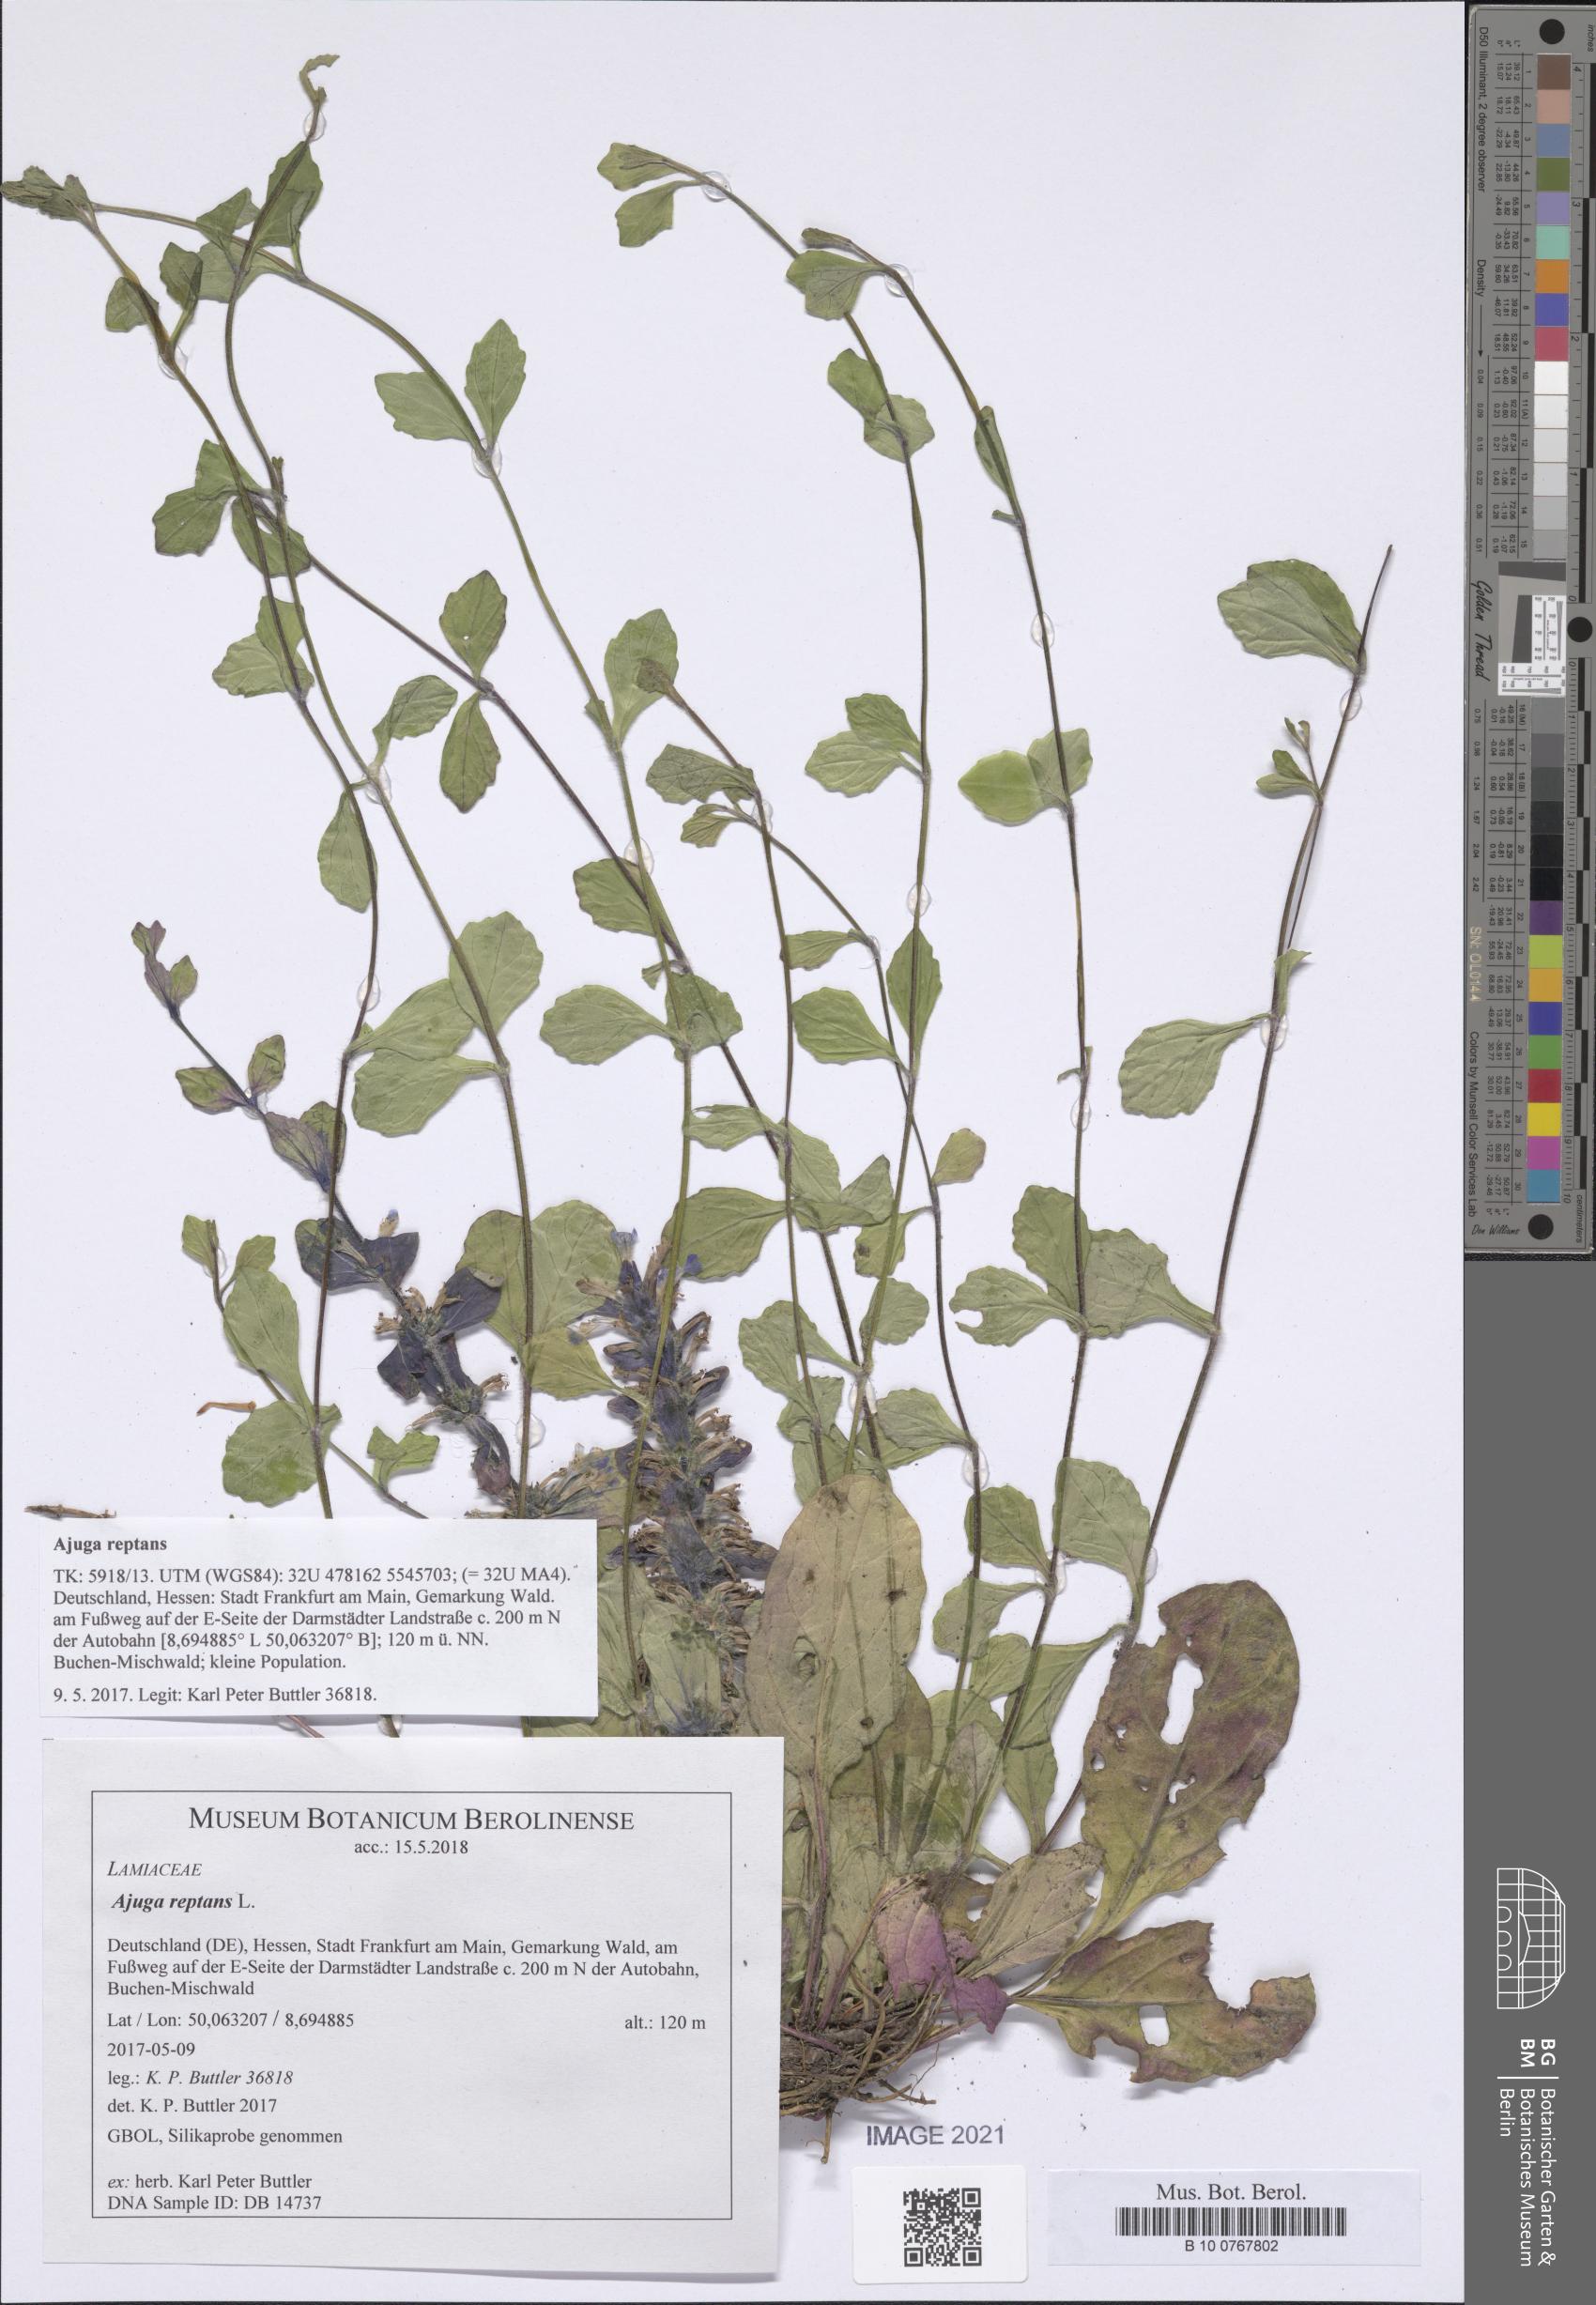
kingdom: Plantae
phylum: Tracheophyta
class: Magnoliopsida
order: Lamiales
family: Lamiaceae
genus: Ajuga
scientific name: Ajuga reptans
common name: Bugle
